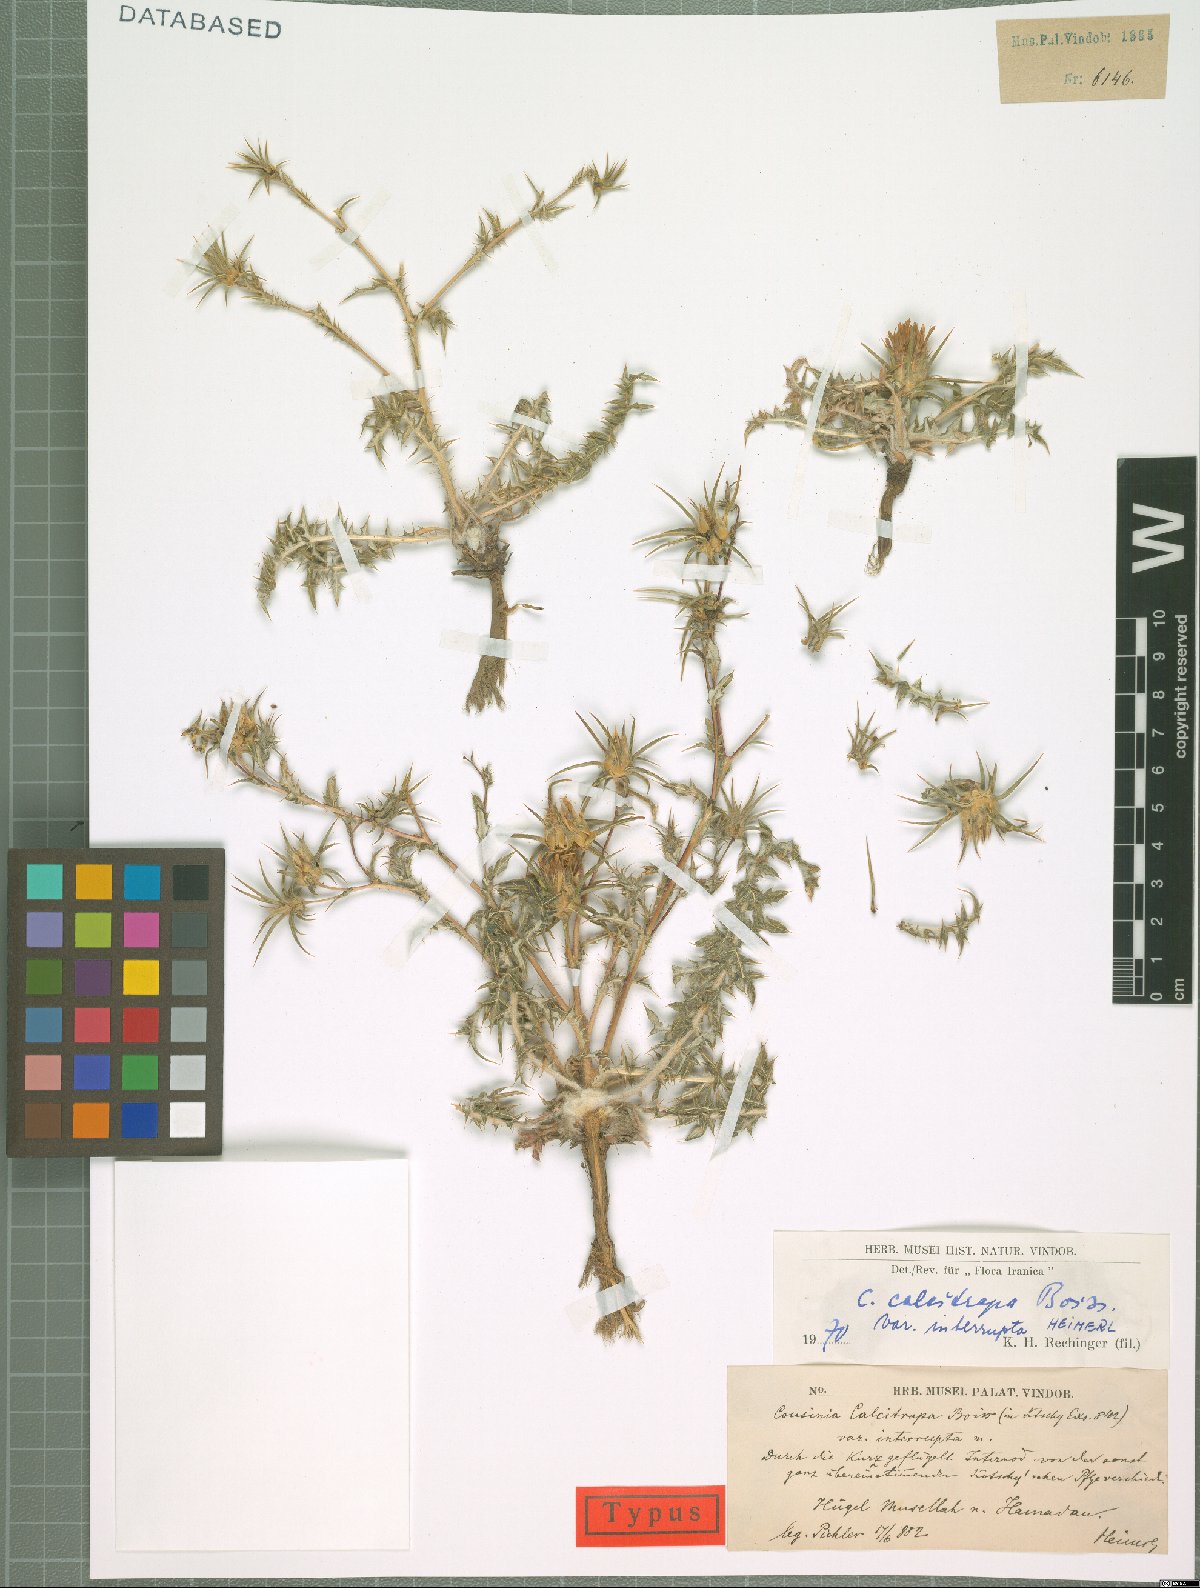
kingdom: Plantae
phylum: Tracheophyta
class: Magnoliopsida
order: Asterales
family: Asteraceae
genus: Cousinia
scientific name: Cousinia calcitrapa
